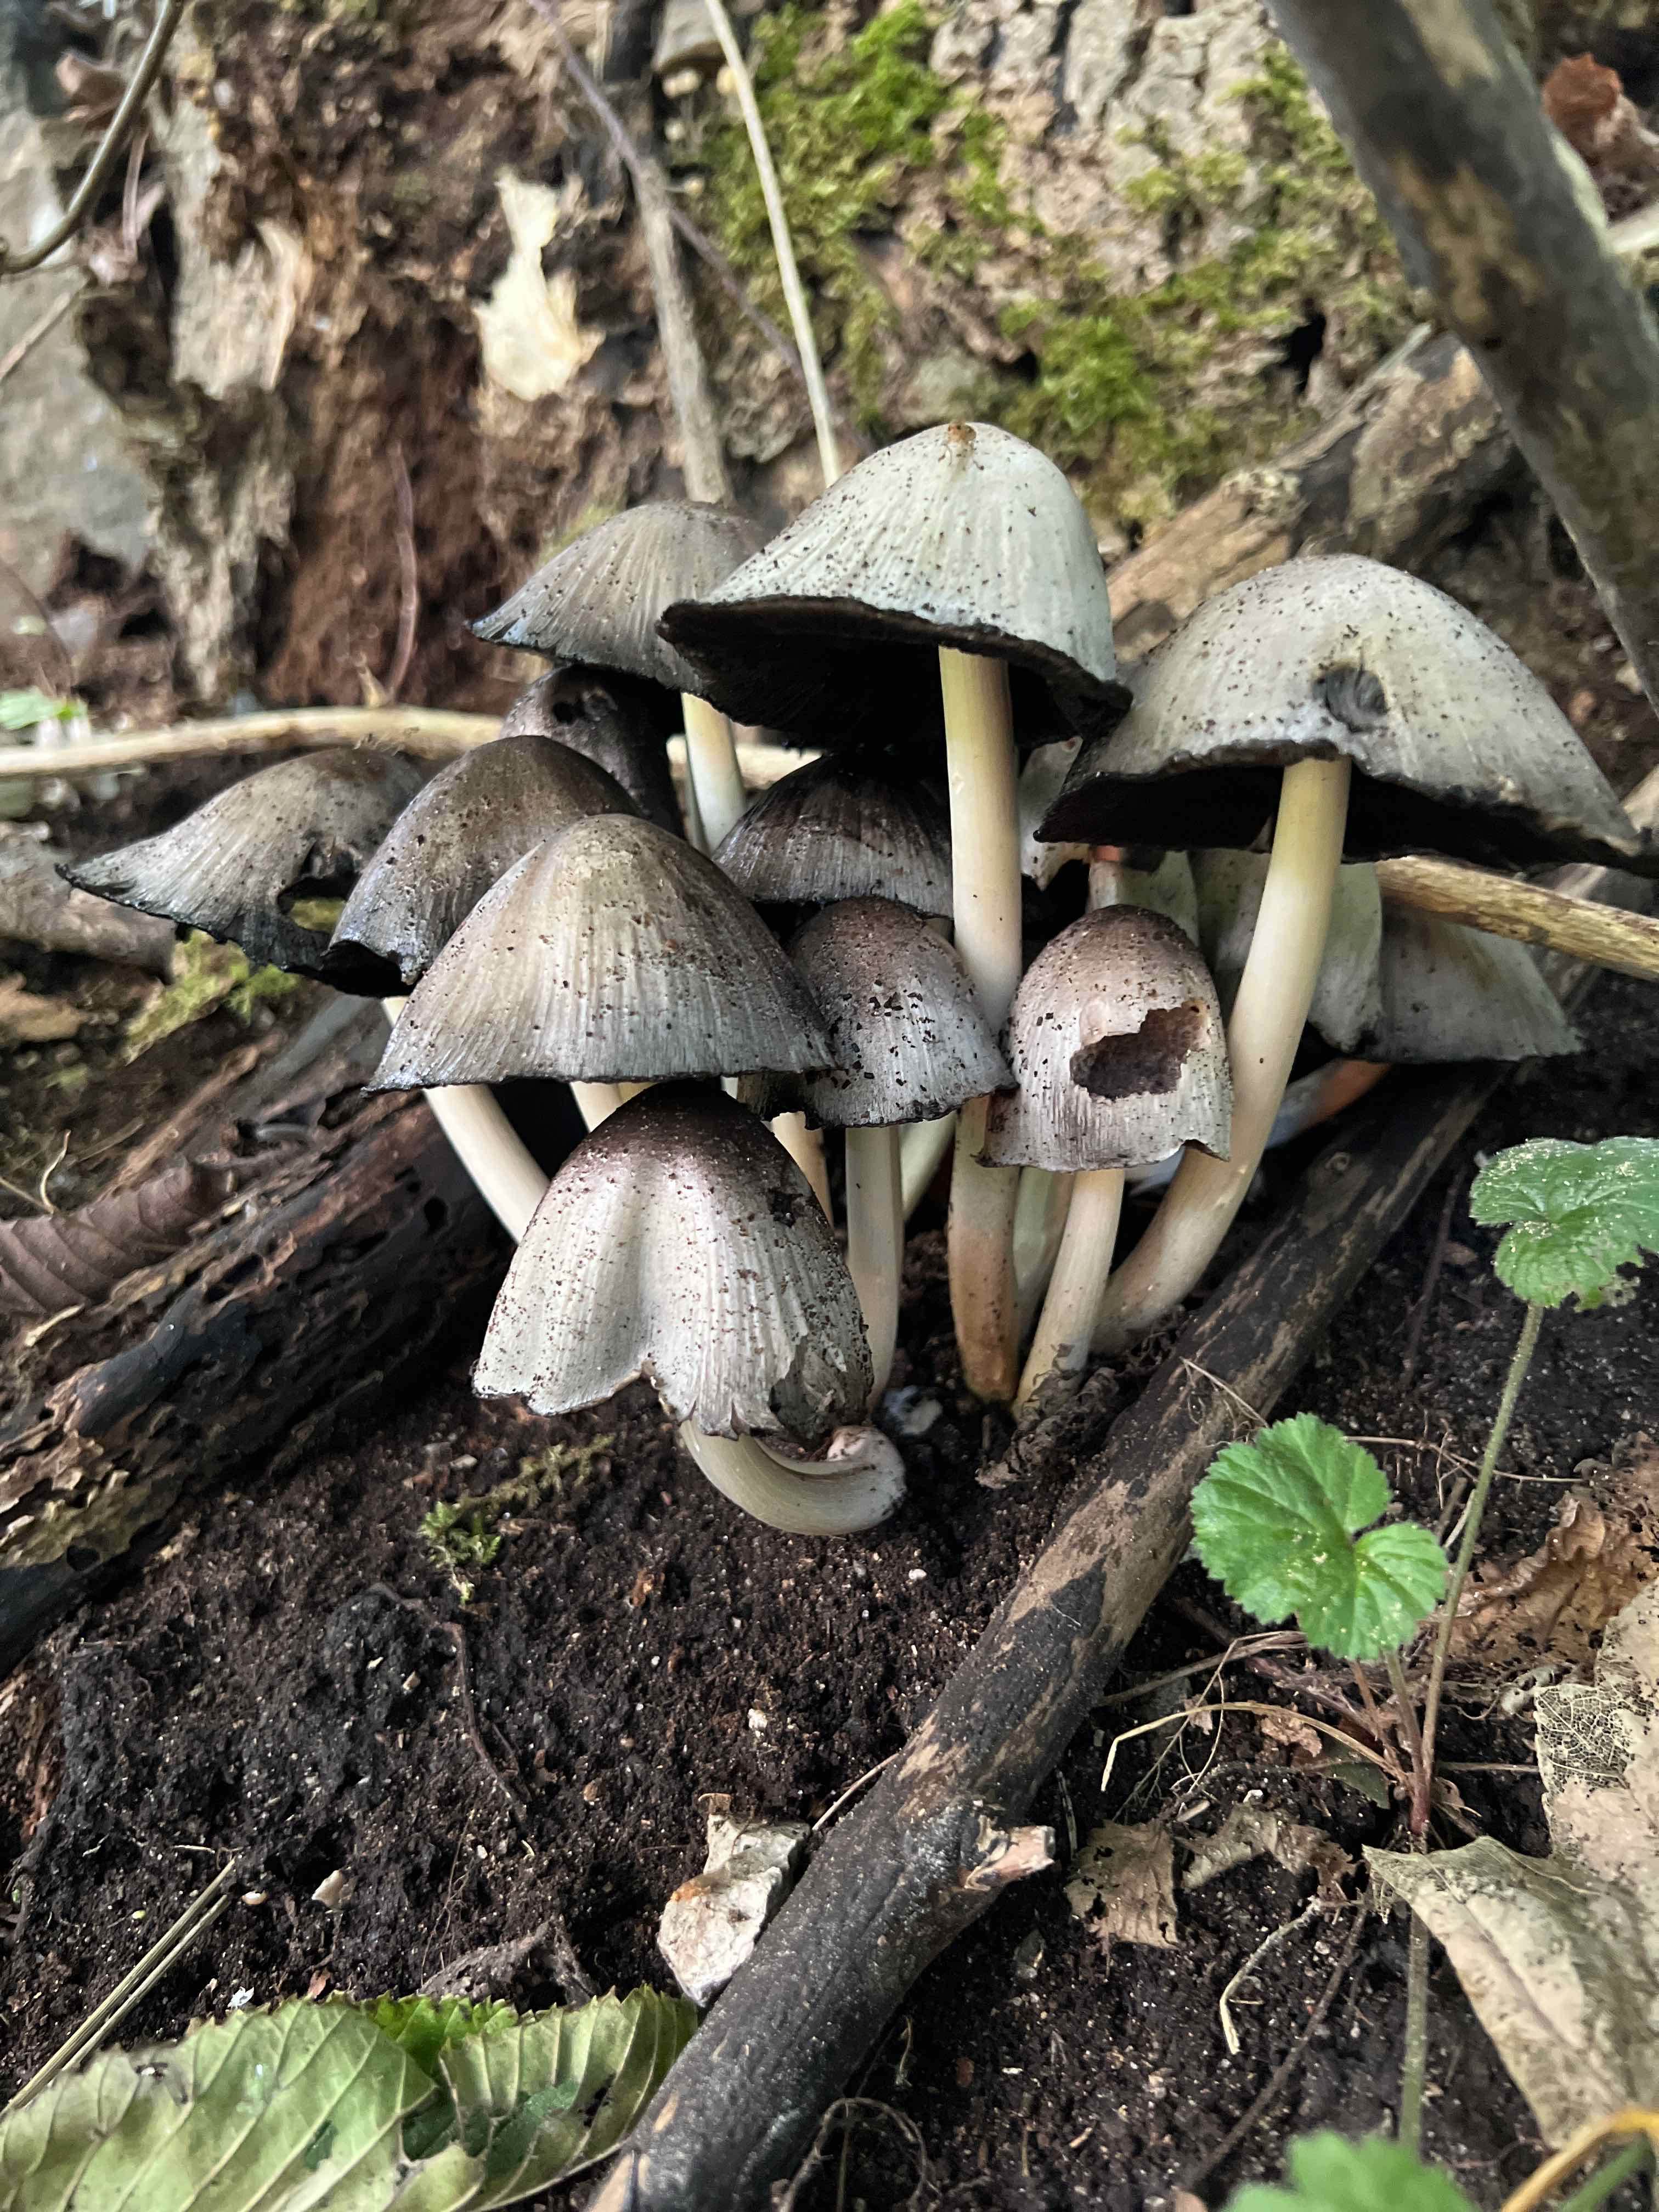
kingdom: Fungi
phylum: Basidiomycota
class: Agaricomycetes
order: Agaricales
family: Psathyrellaceae
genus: Coprinopsis
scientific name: Coprinopsis atramentaria
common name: almindelig blækhat
